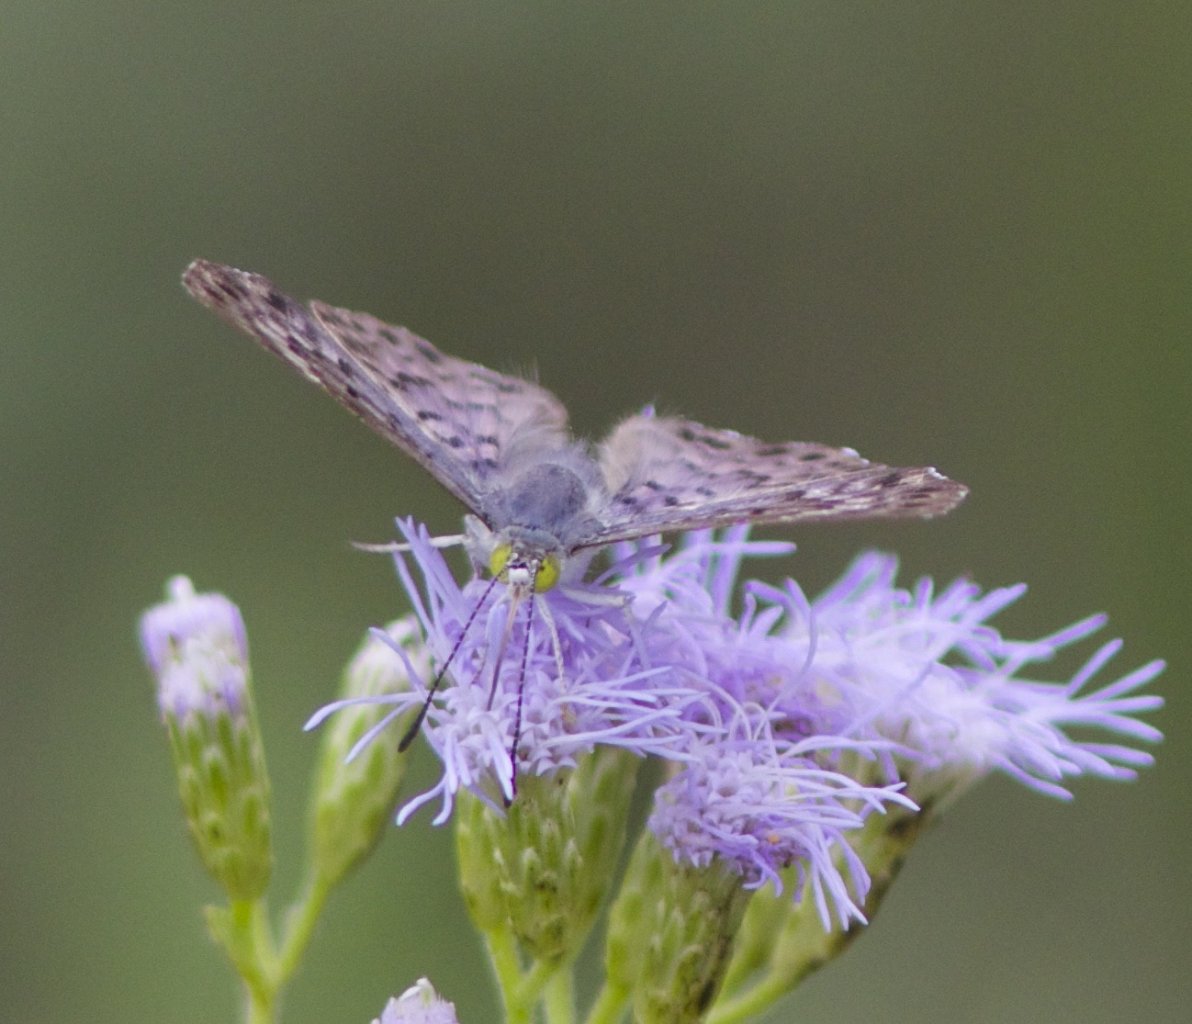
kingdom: Animalia
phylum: Arthropoda
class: Insecta
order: Lepidoptera
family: Riodinidae
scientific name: Riodinidae
